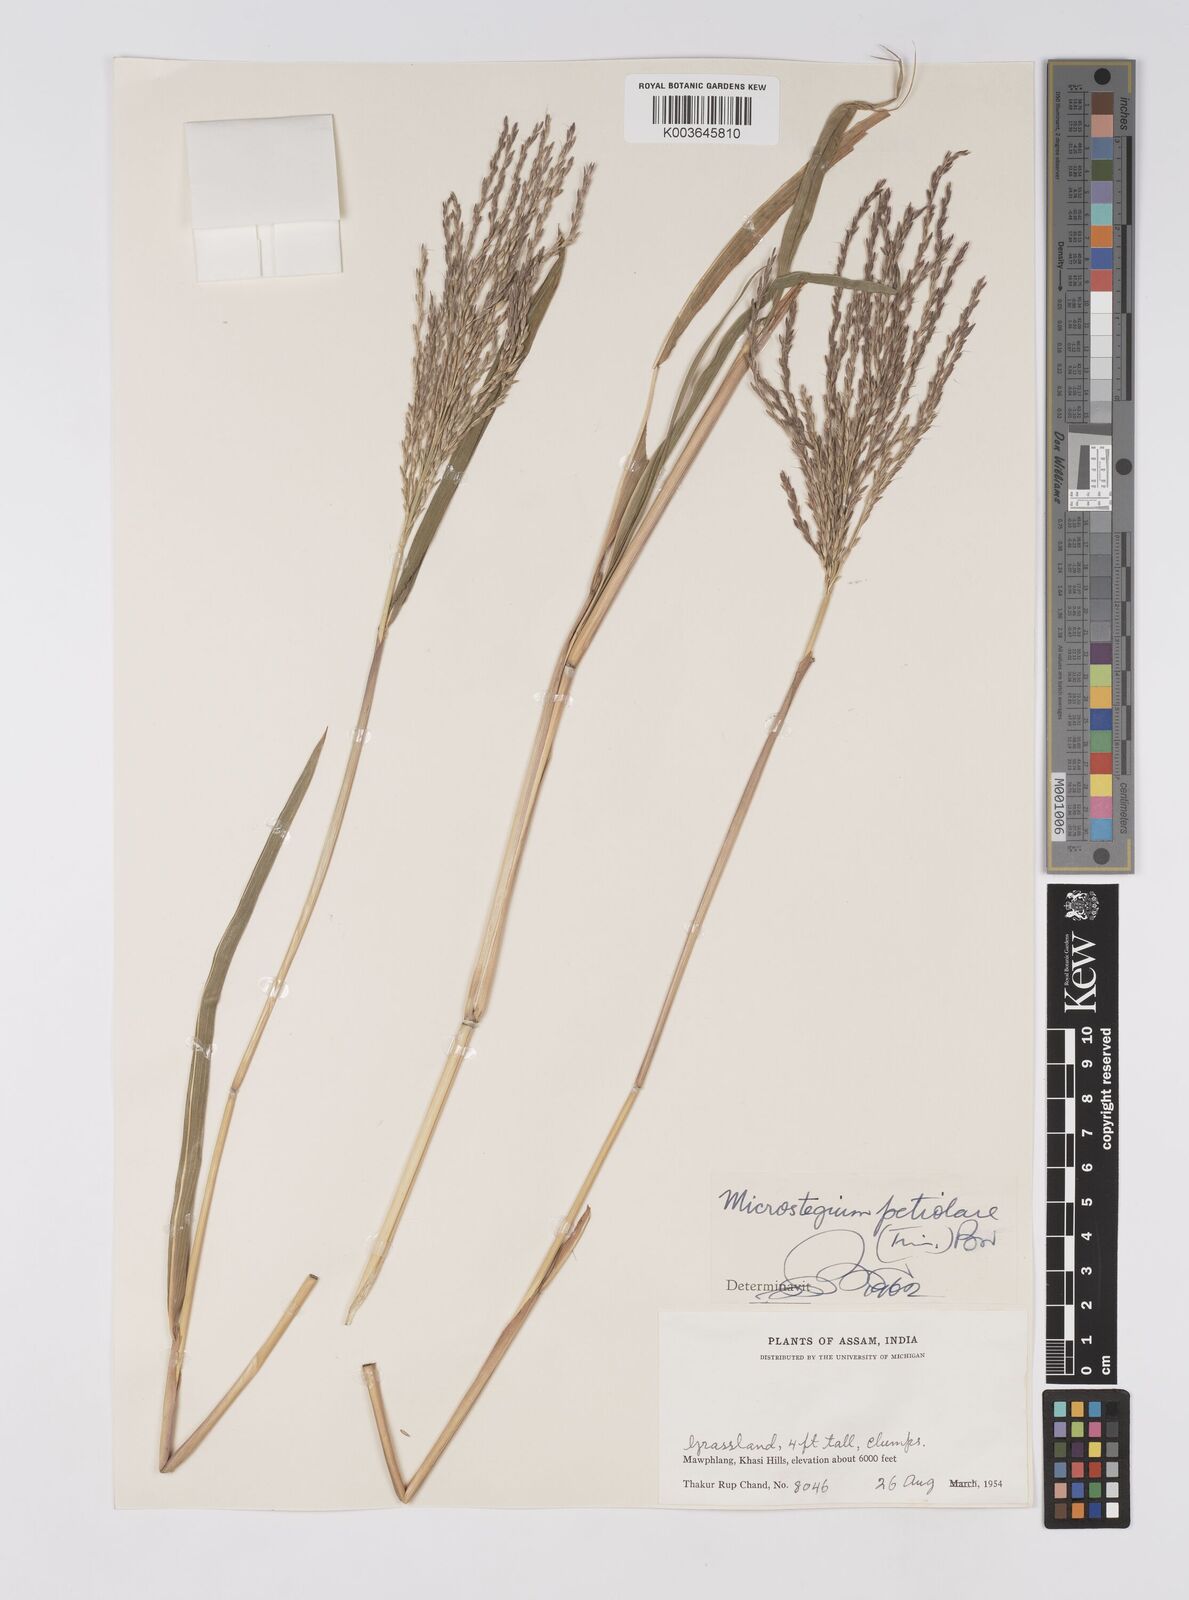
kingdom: Plantae
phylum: Tracheophyta
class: Liliopsida
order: Poales
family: Poaceae
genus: Microstegium
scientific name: Microstegium petiolare
